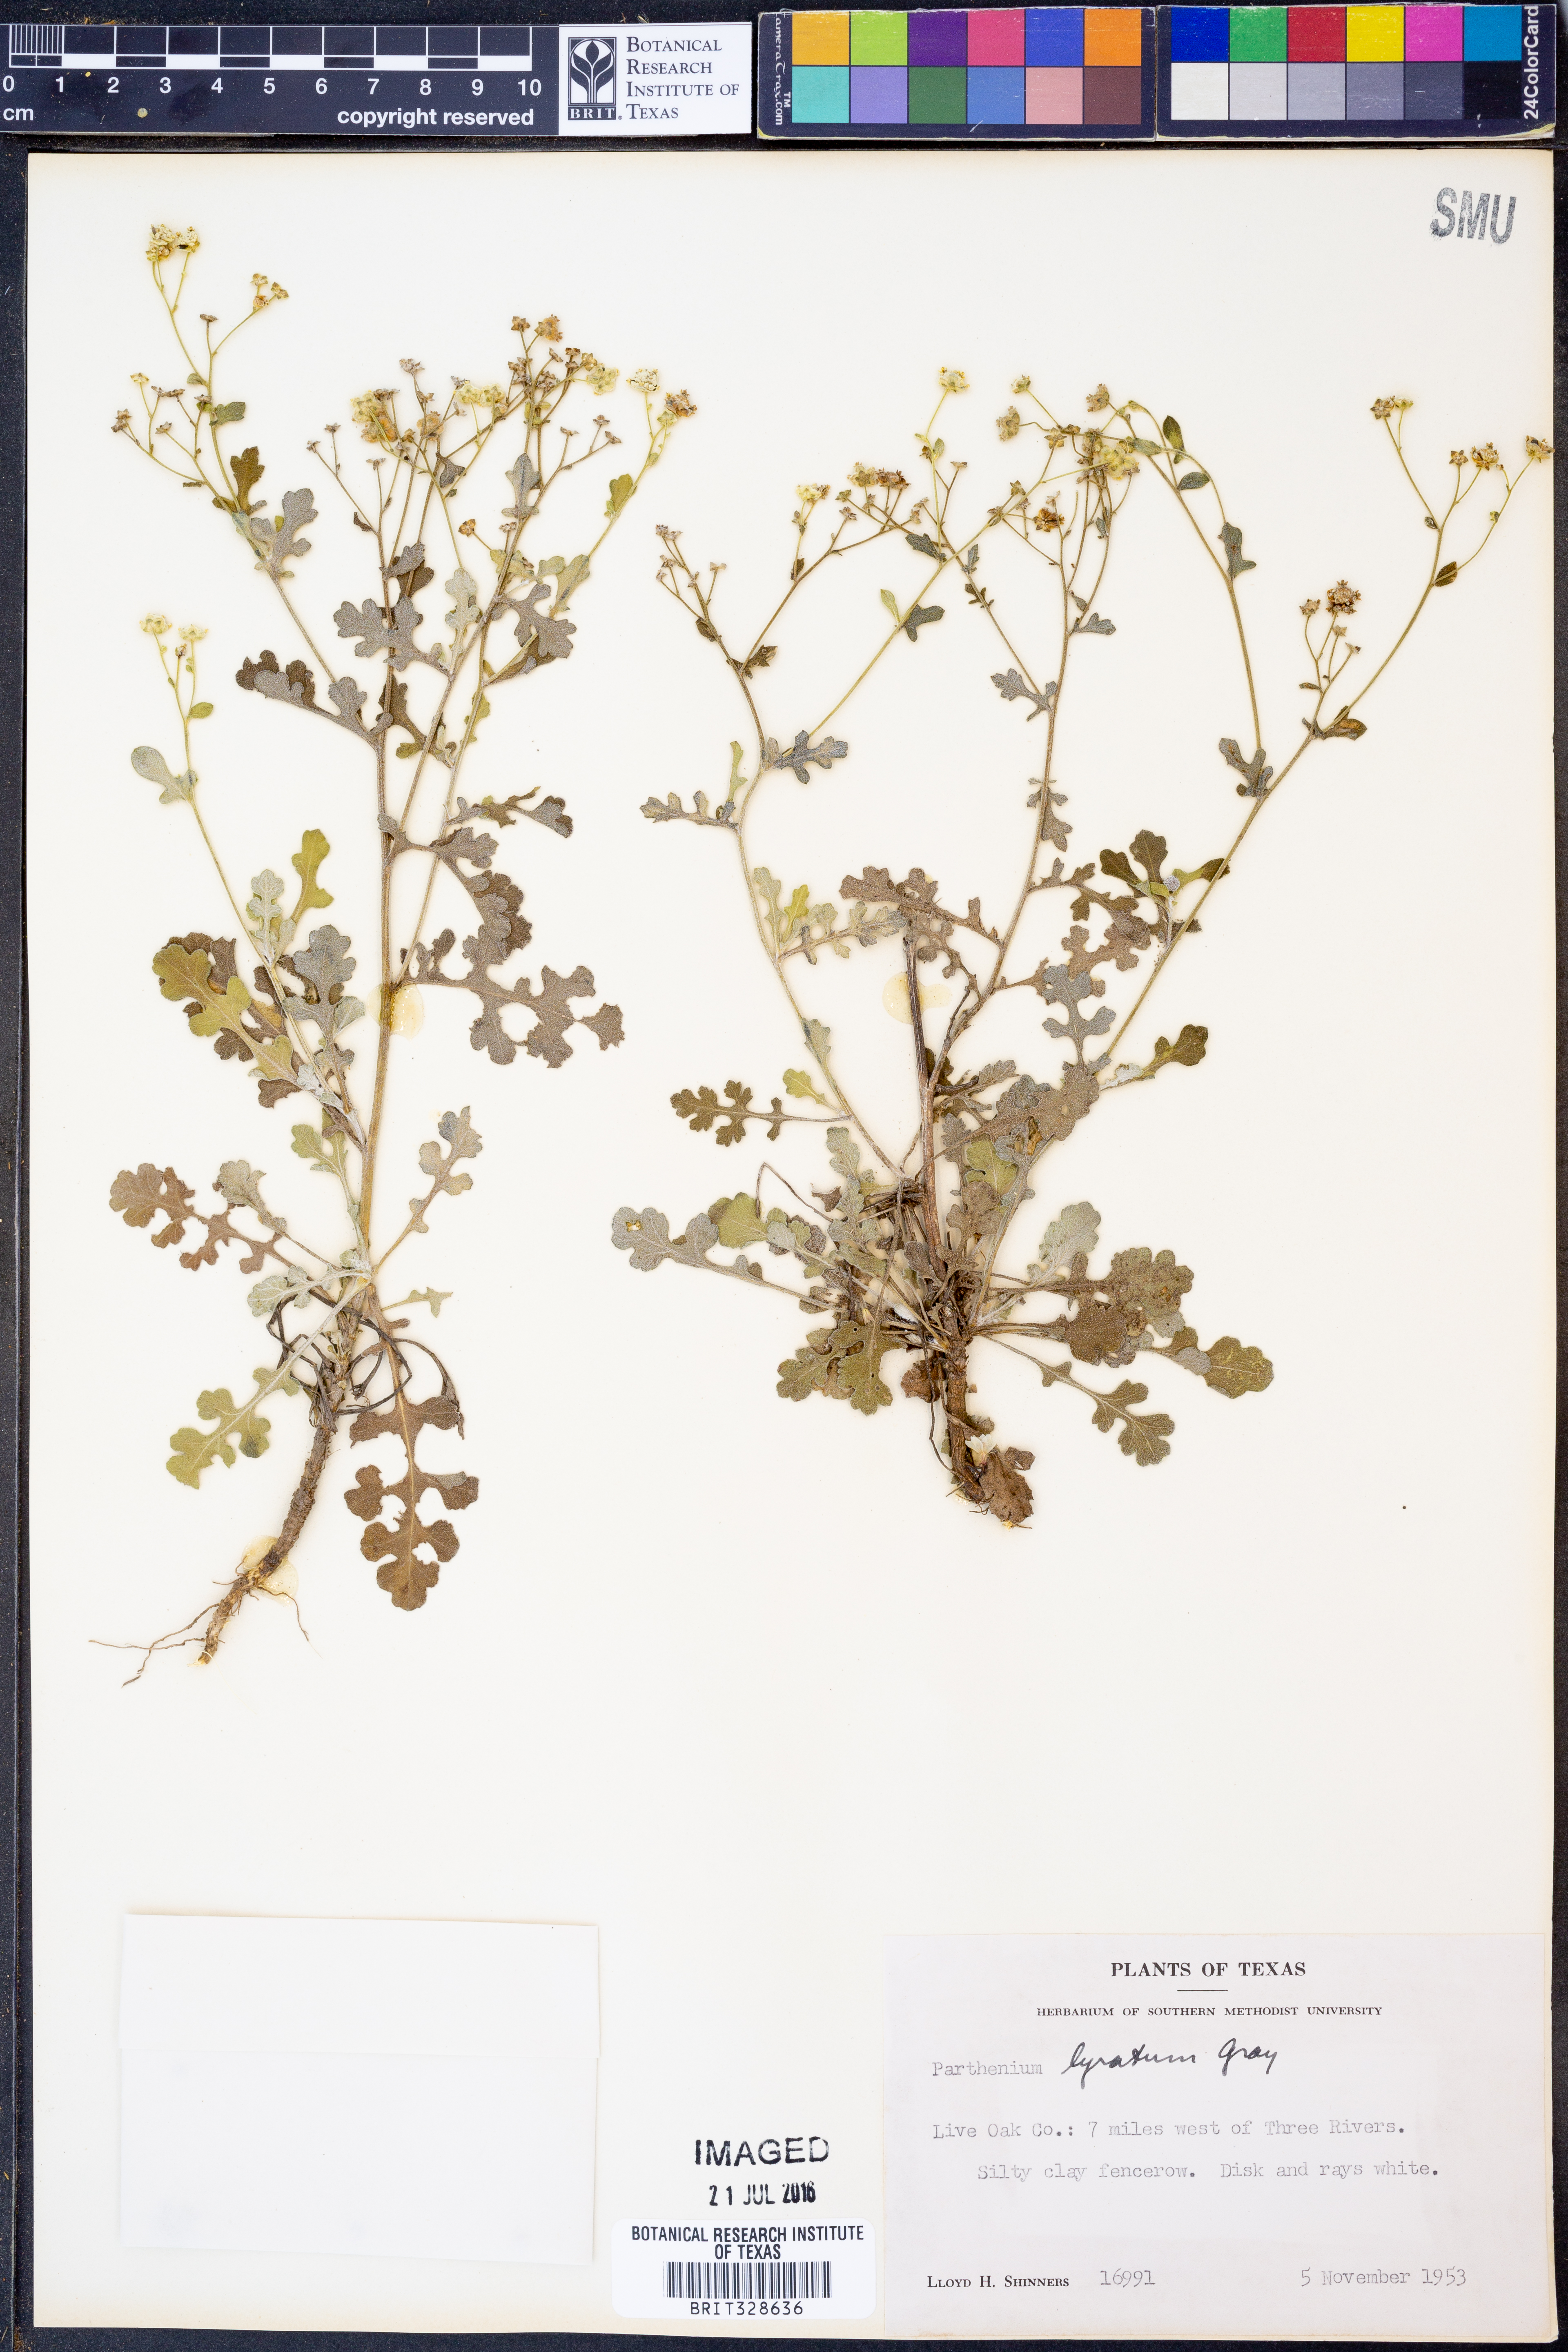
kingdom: Plantae
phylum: Tracheophyta
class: Magnoliopsida
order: Asterales
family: Asteraceae
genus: Parthenium
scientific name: Parthenium confertum
